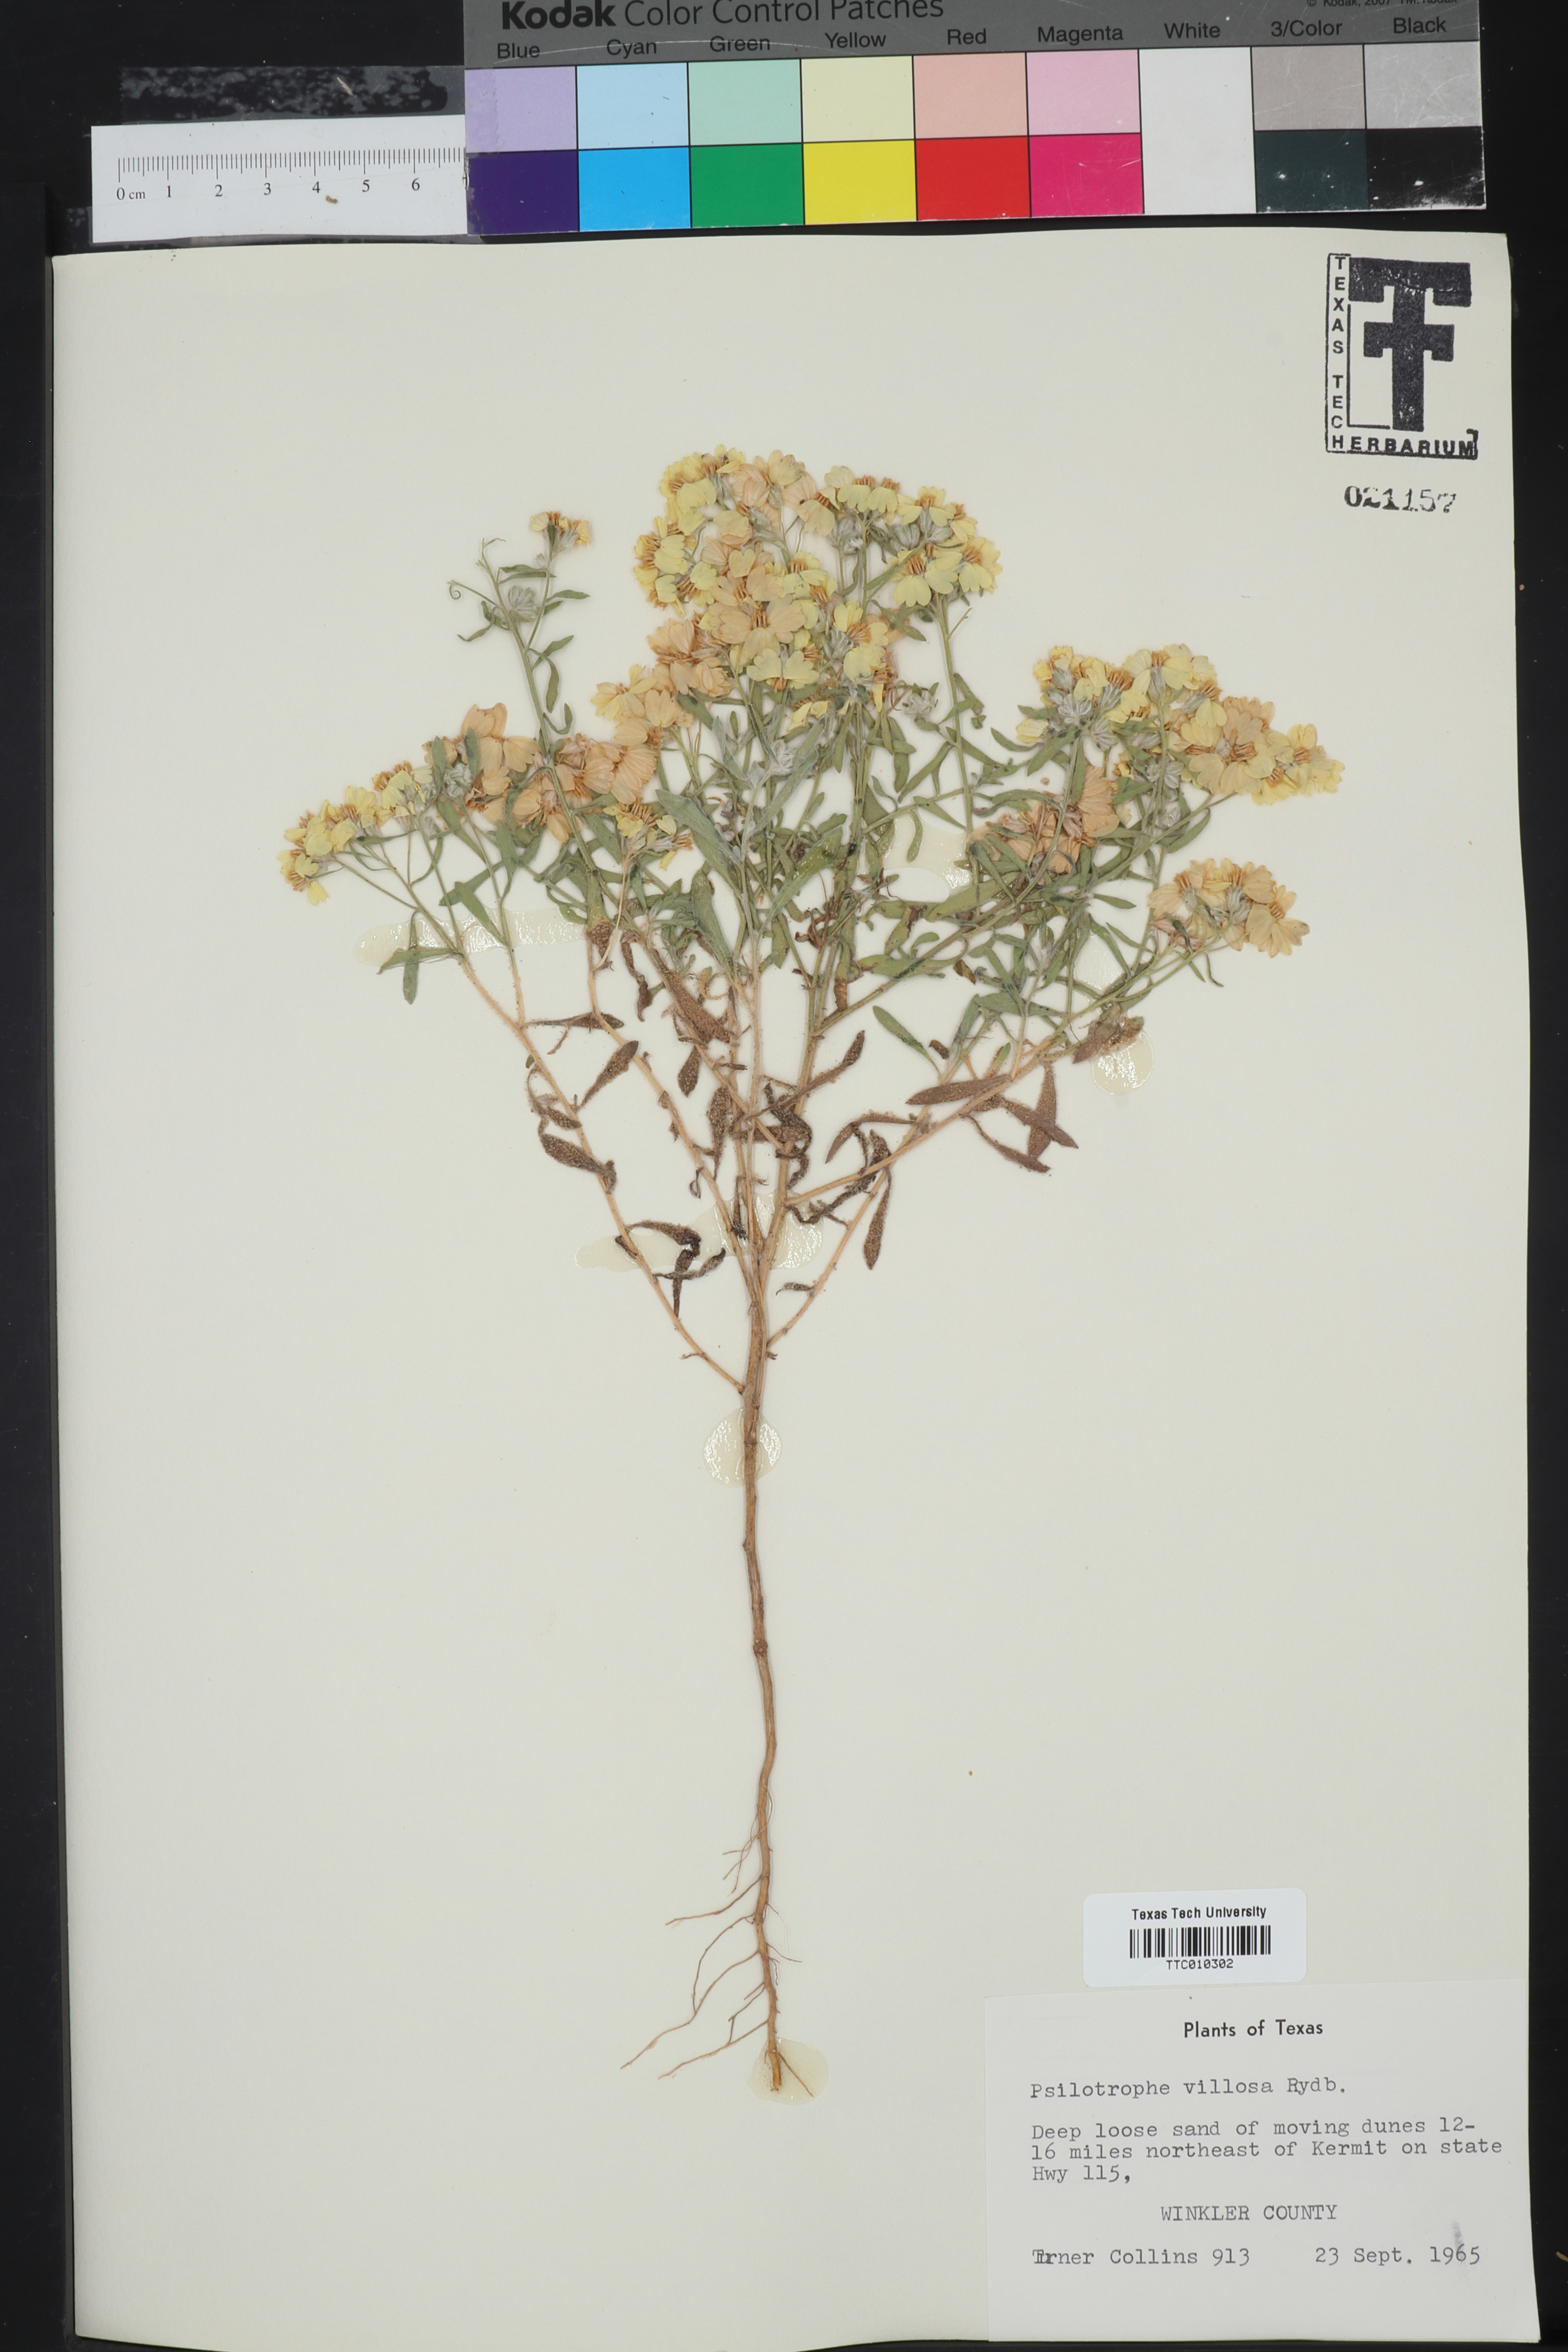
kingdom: Plantae
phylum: Tracheophyta
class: Magnoliopsida
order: Asterales
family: Asteraceae
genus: Psilostrophe
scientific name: Psilostrophe villosa
